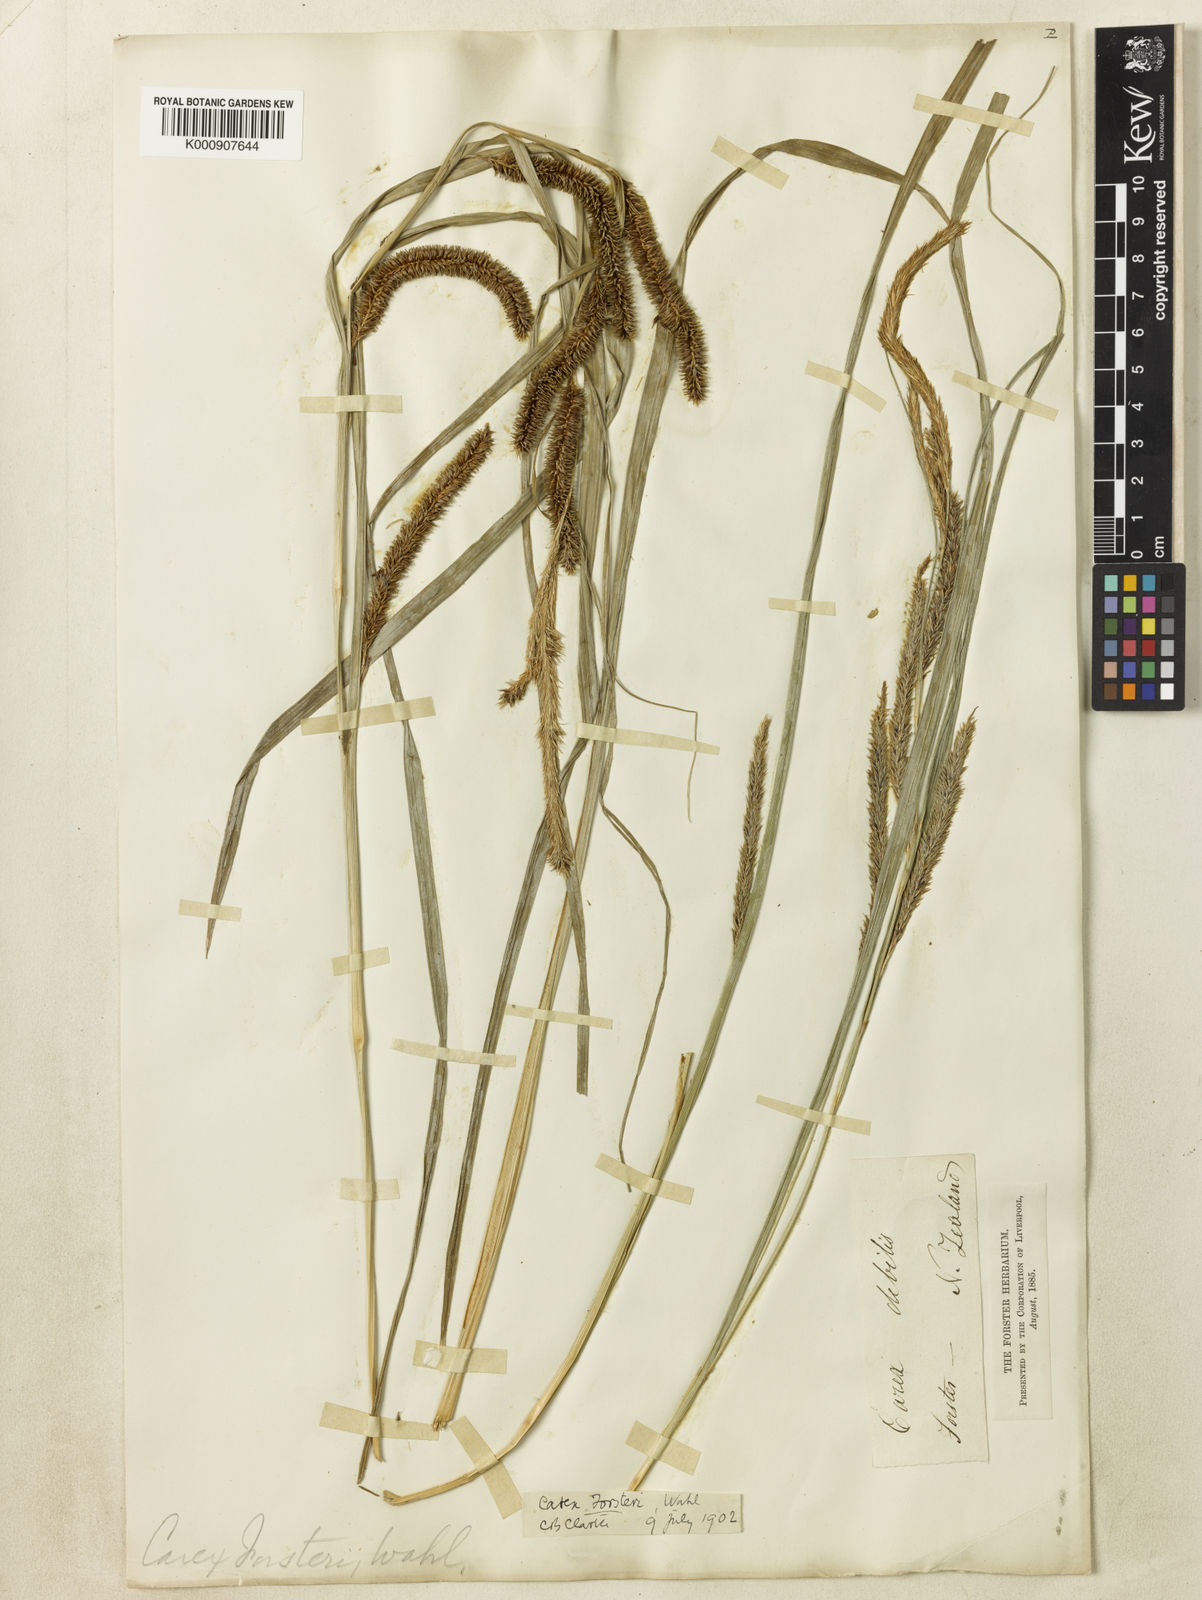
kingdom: Plantae
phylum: Tracheophyta
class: Liliopsida
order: Poales
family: Cyperaceae
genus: Carex
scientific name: Carex forsteri
